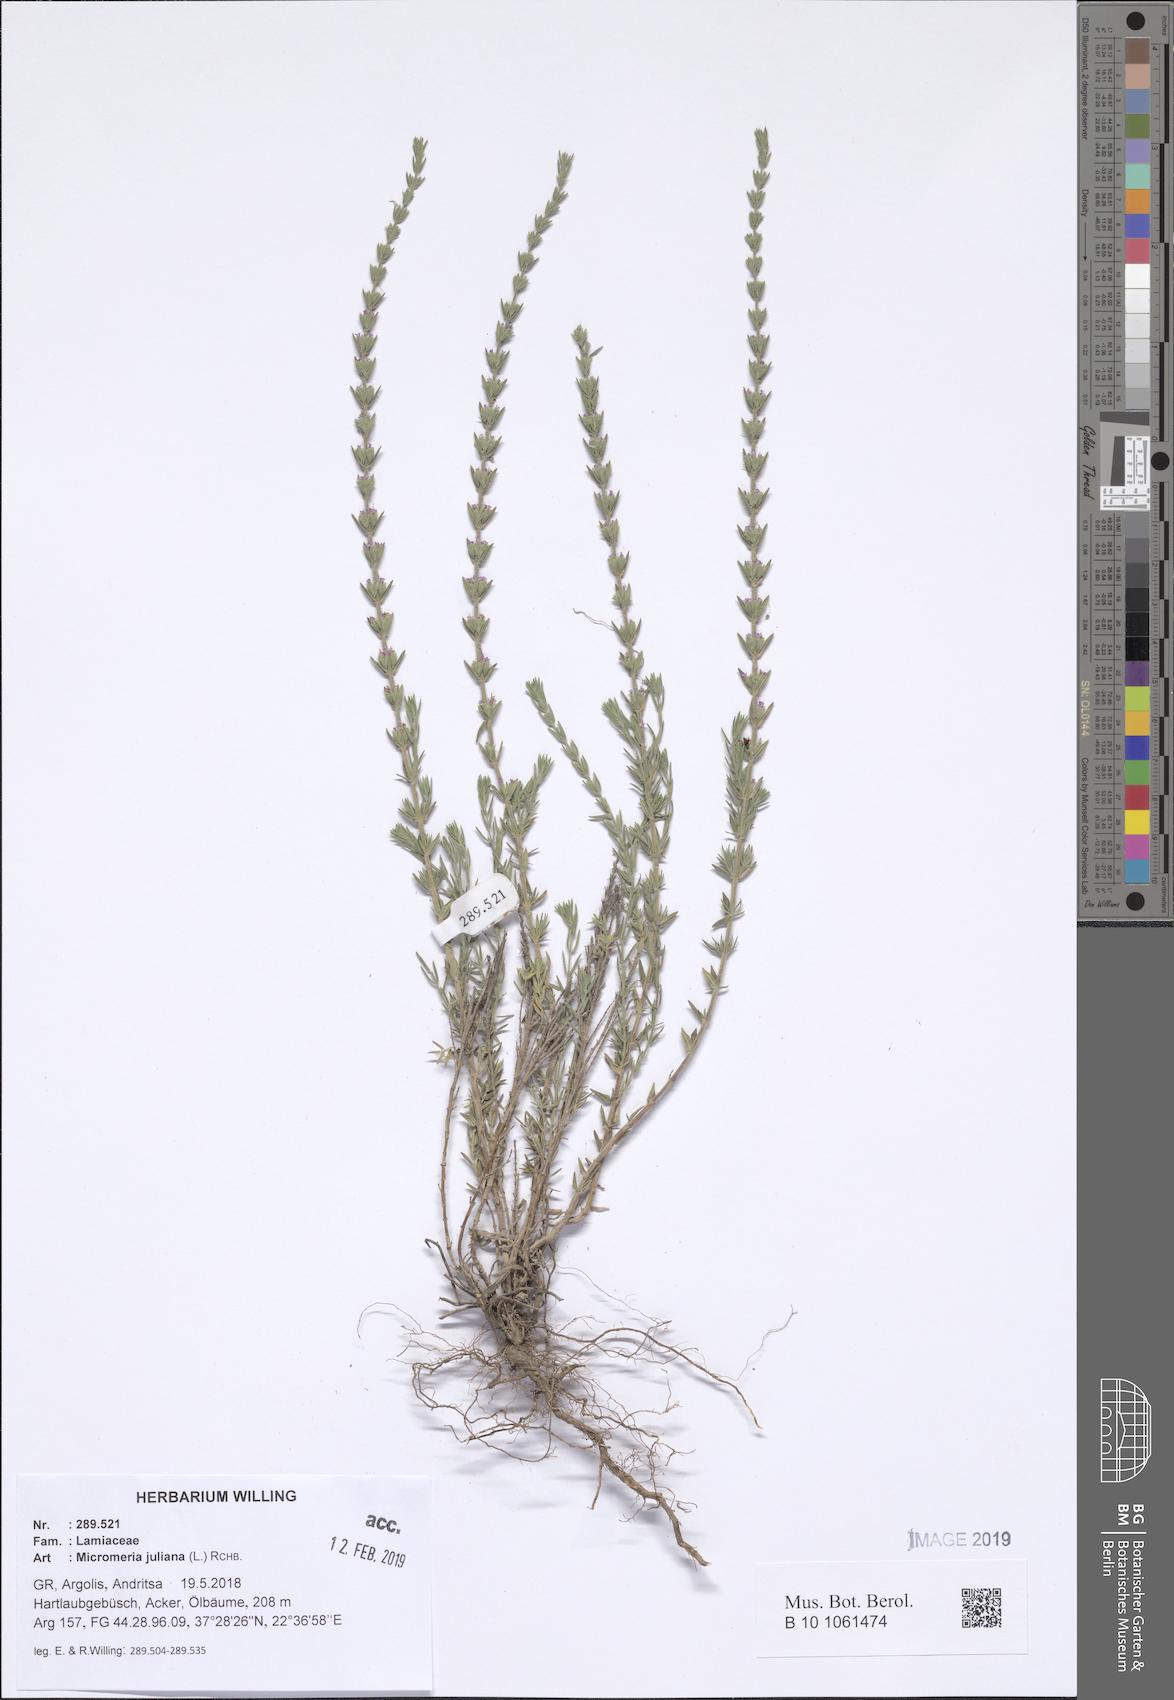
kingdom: Plantae
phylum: Tracheophyta
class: Magnoliopsida
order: Lamiales
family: Lamiaceae
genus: Micromeria
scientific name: Micromeria juliana
